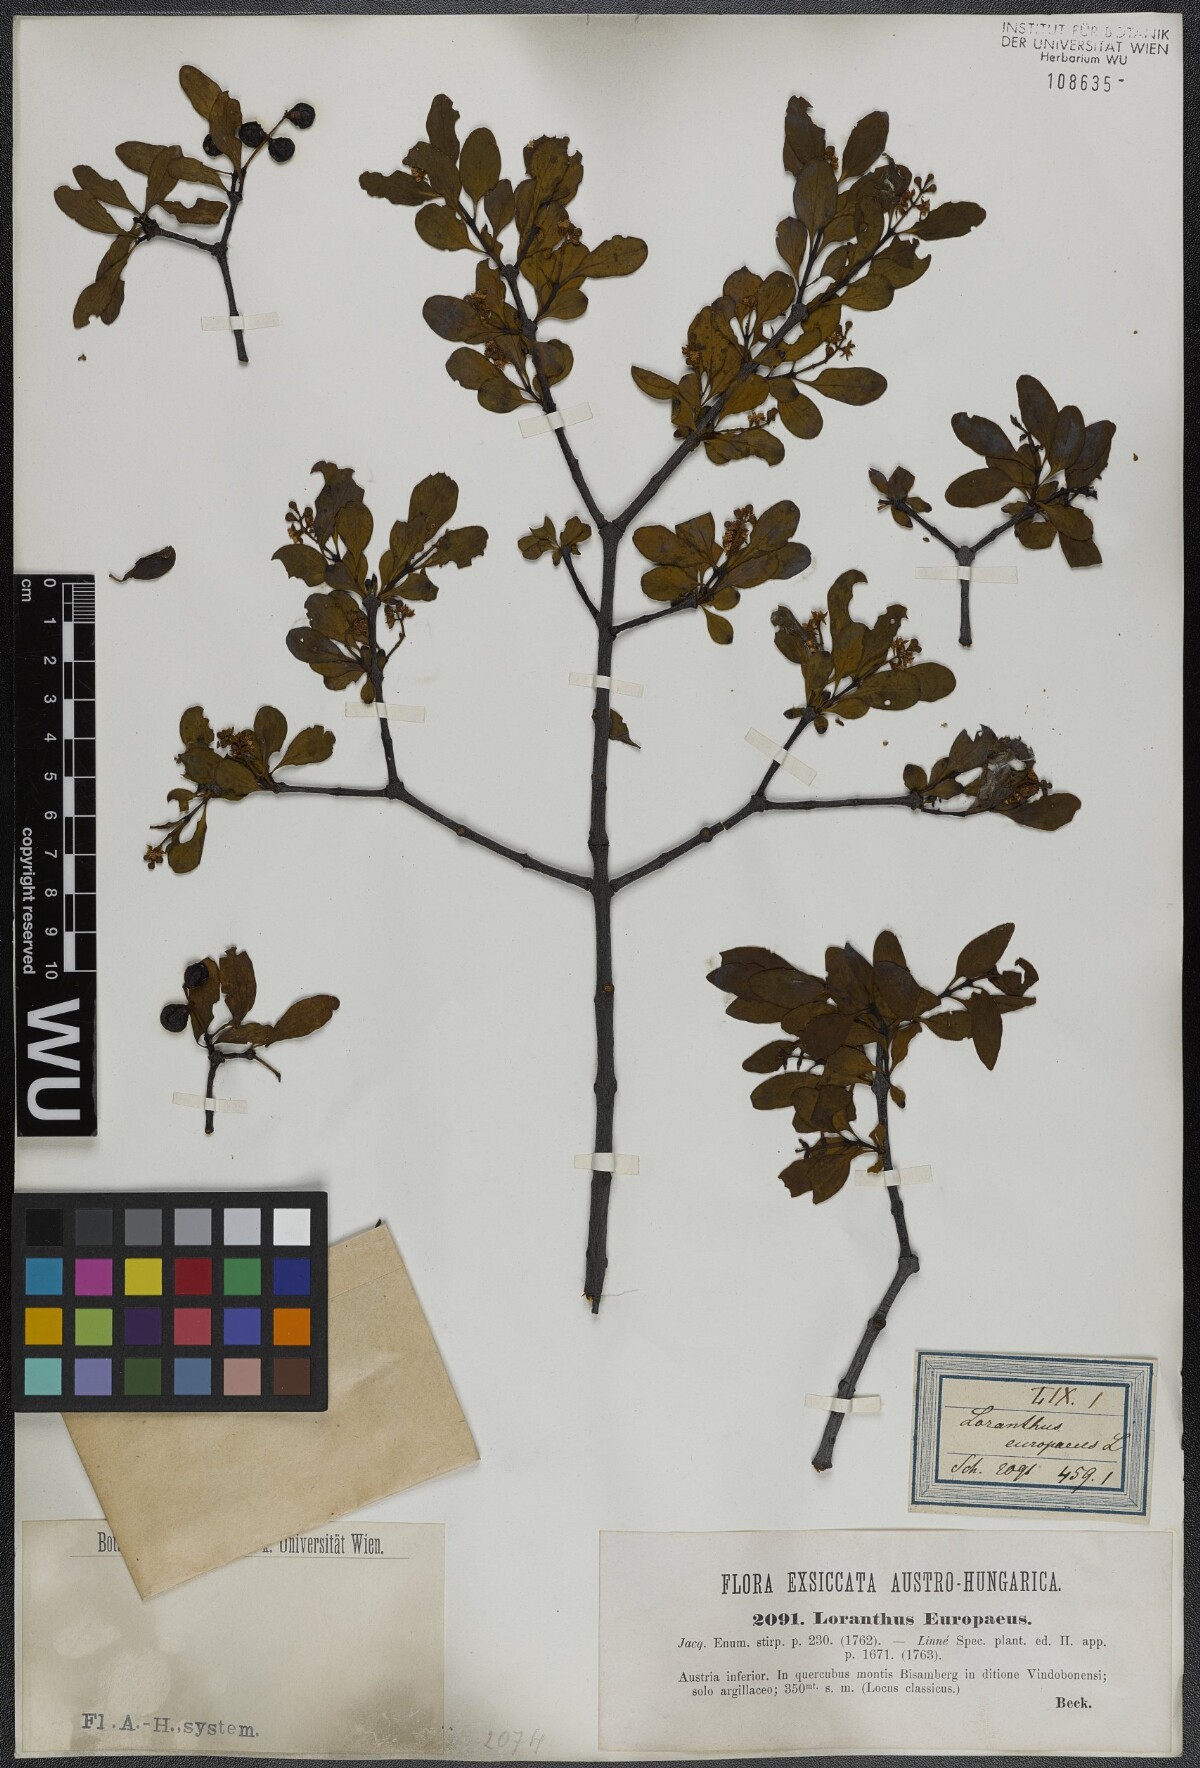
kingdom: Plantae
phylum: Tracheophyta
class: Magnoliopsida
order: Santalales
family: Loranthaceae
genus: Loranthus
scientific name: Loranthus europaeus
